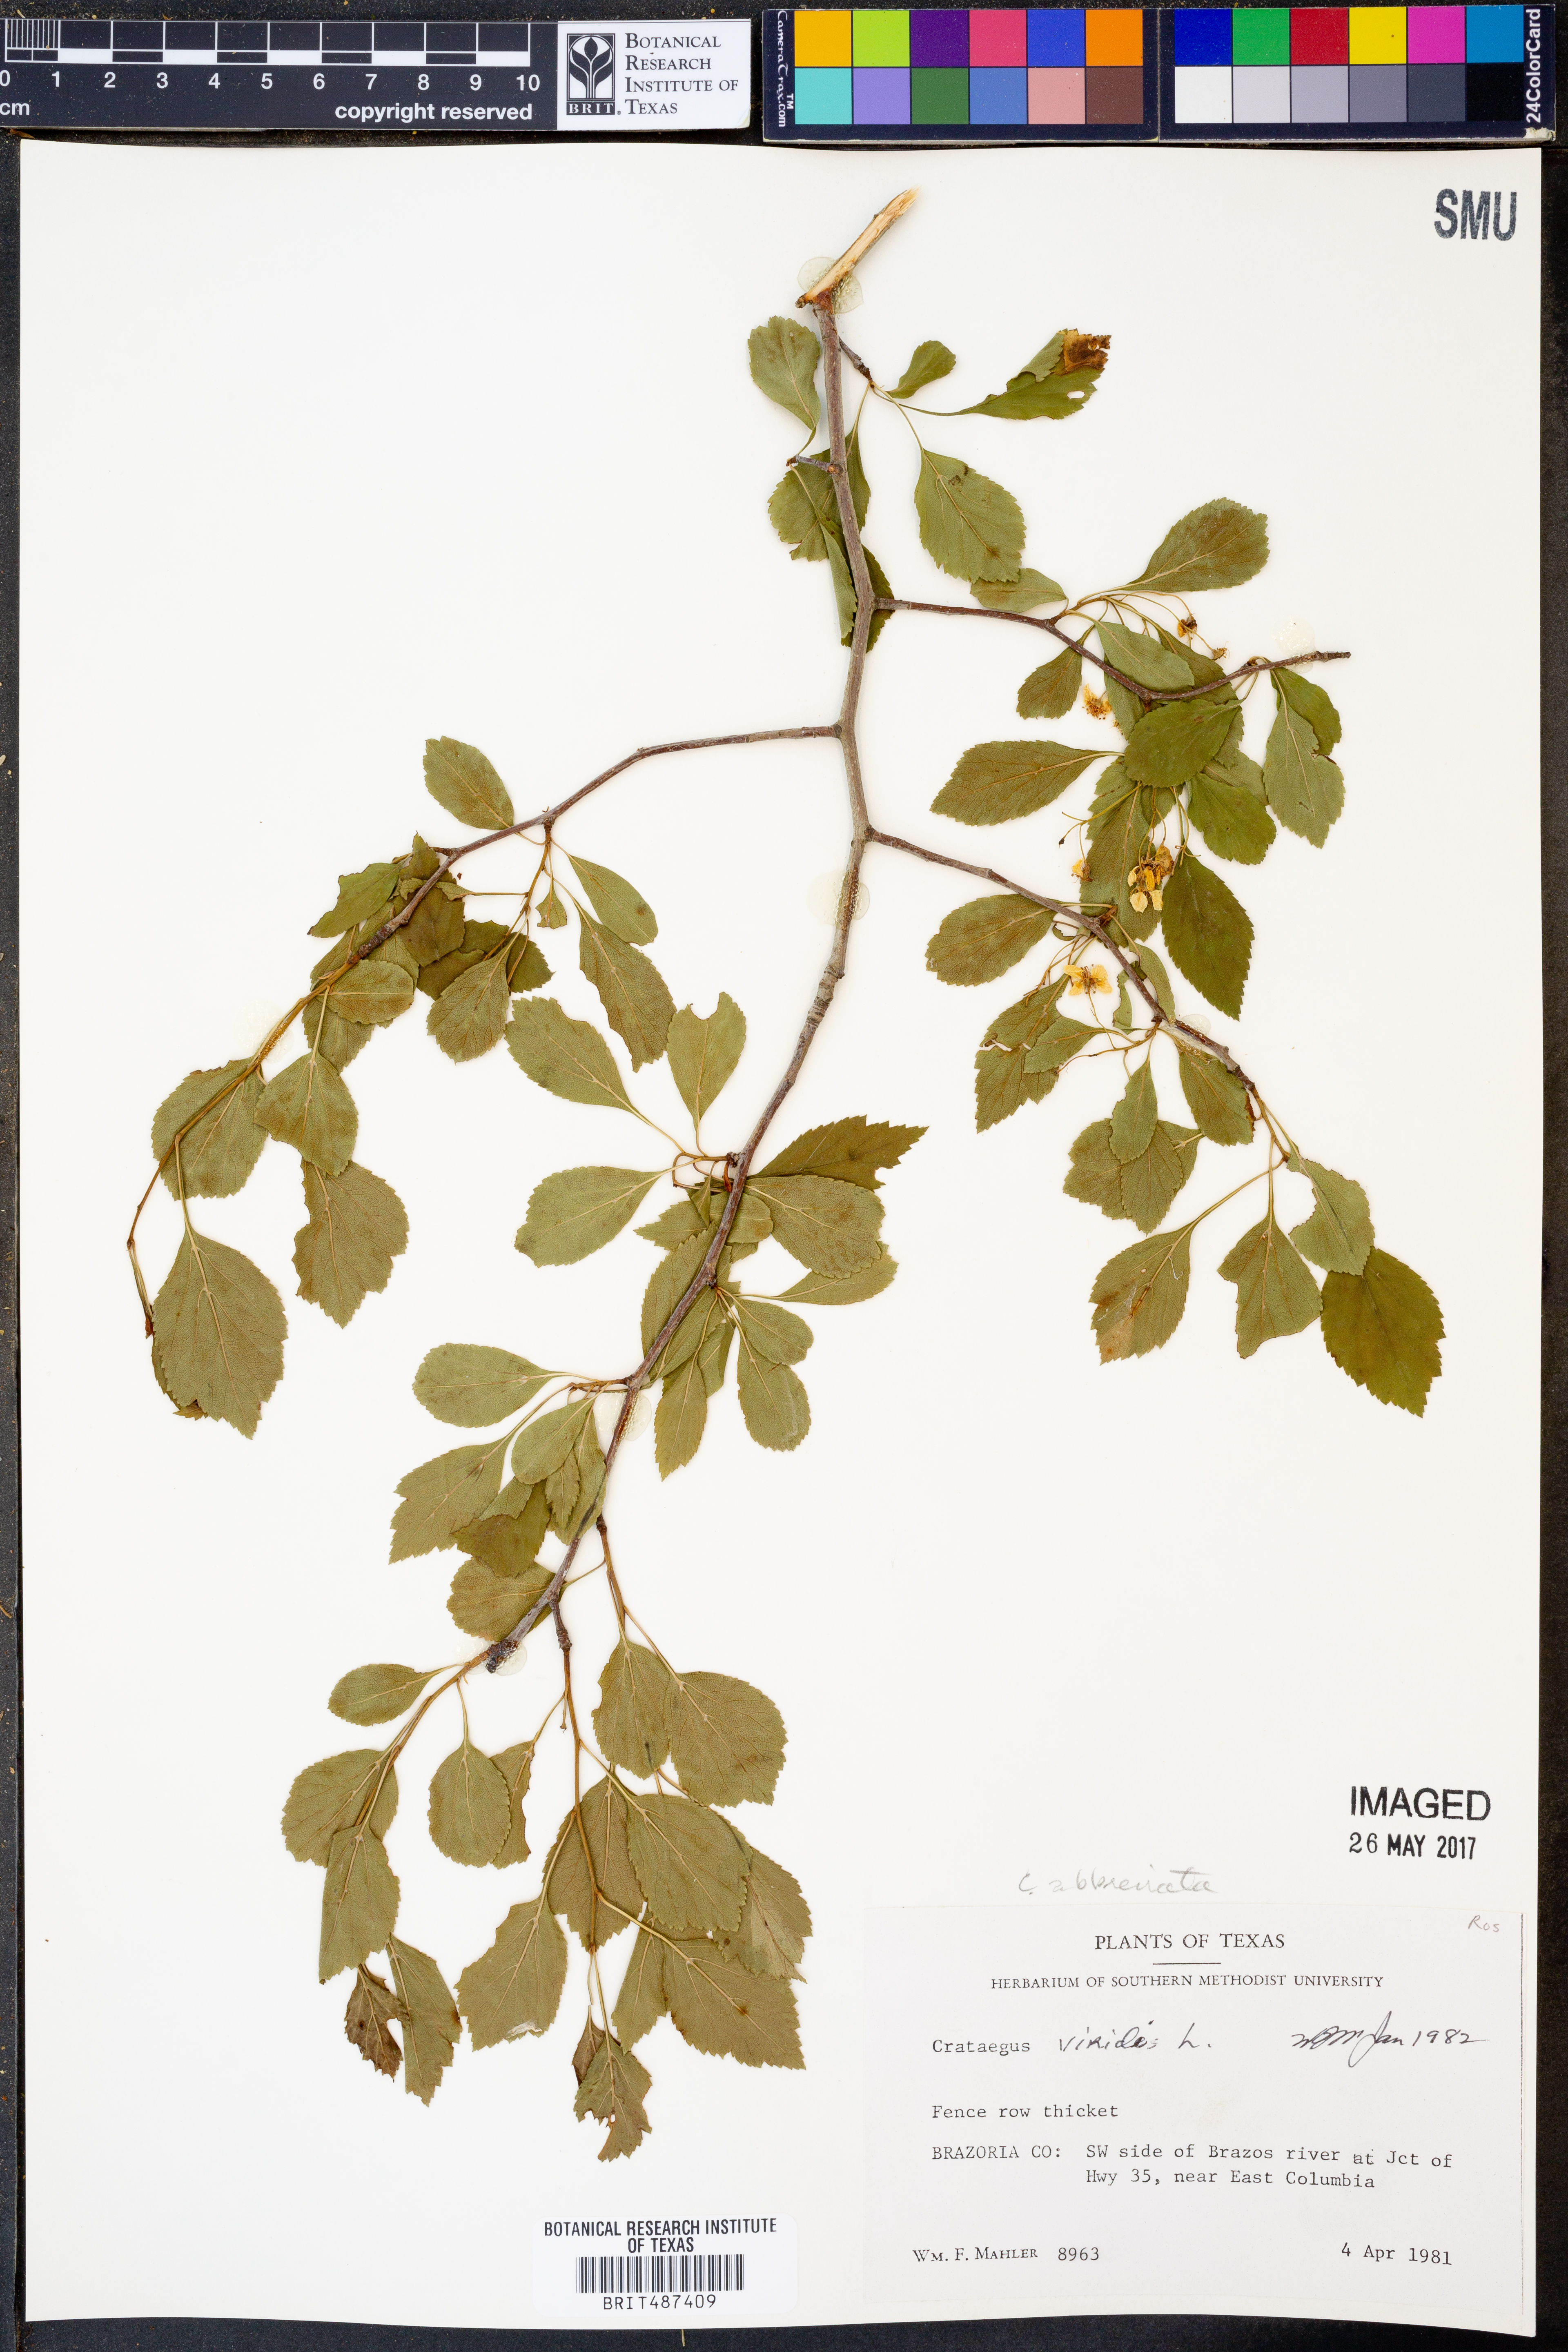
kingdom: Plantae
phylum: Tracheophyta
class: Magnoliopsida
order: Rosales
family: Rosaceae
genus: Crataegus
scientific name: Crataegus viridis
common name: Southernthorn
